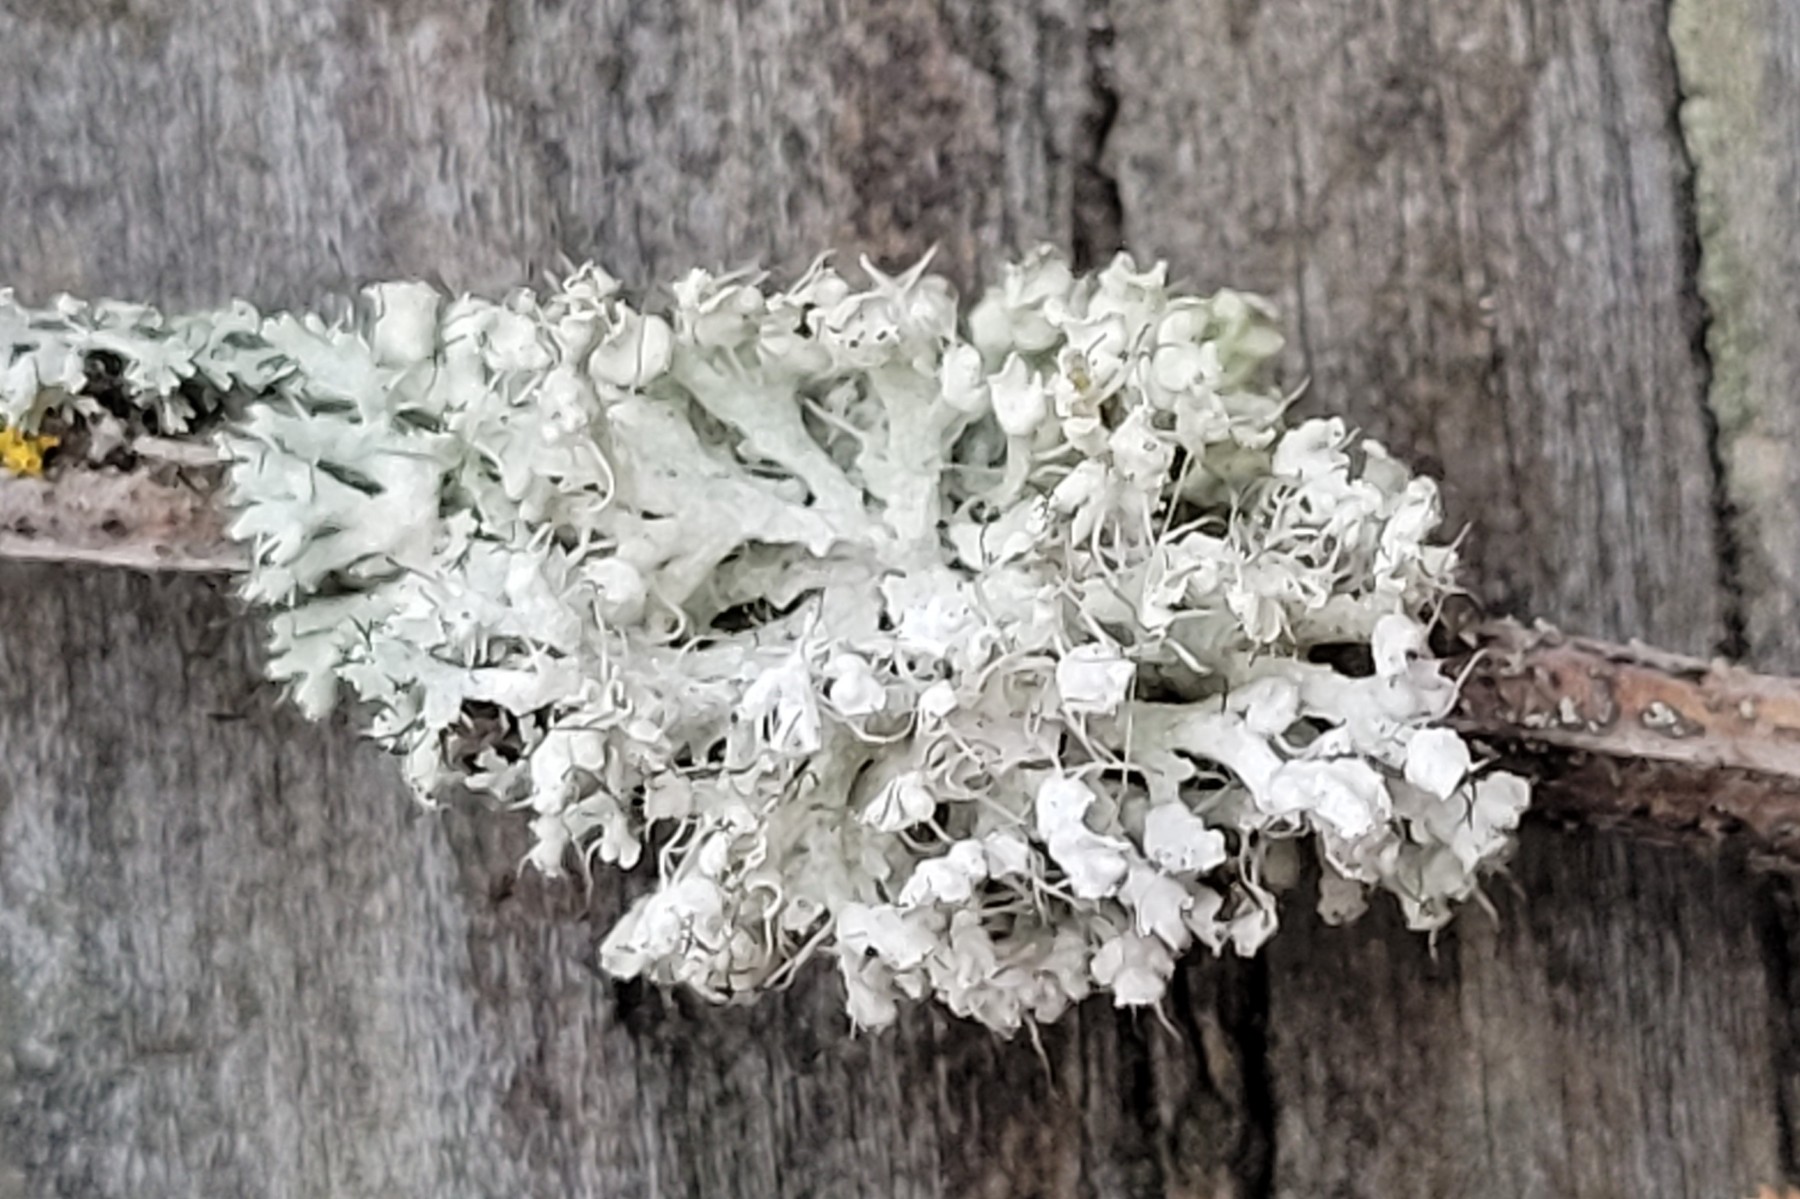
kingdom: Fungi
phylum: Ascomycota
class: Lecanoromycetes
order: Caliciales
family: Physciaceae
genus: Physcia
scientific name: Physcia adscendens
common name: hætte-rosetlav
